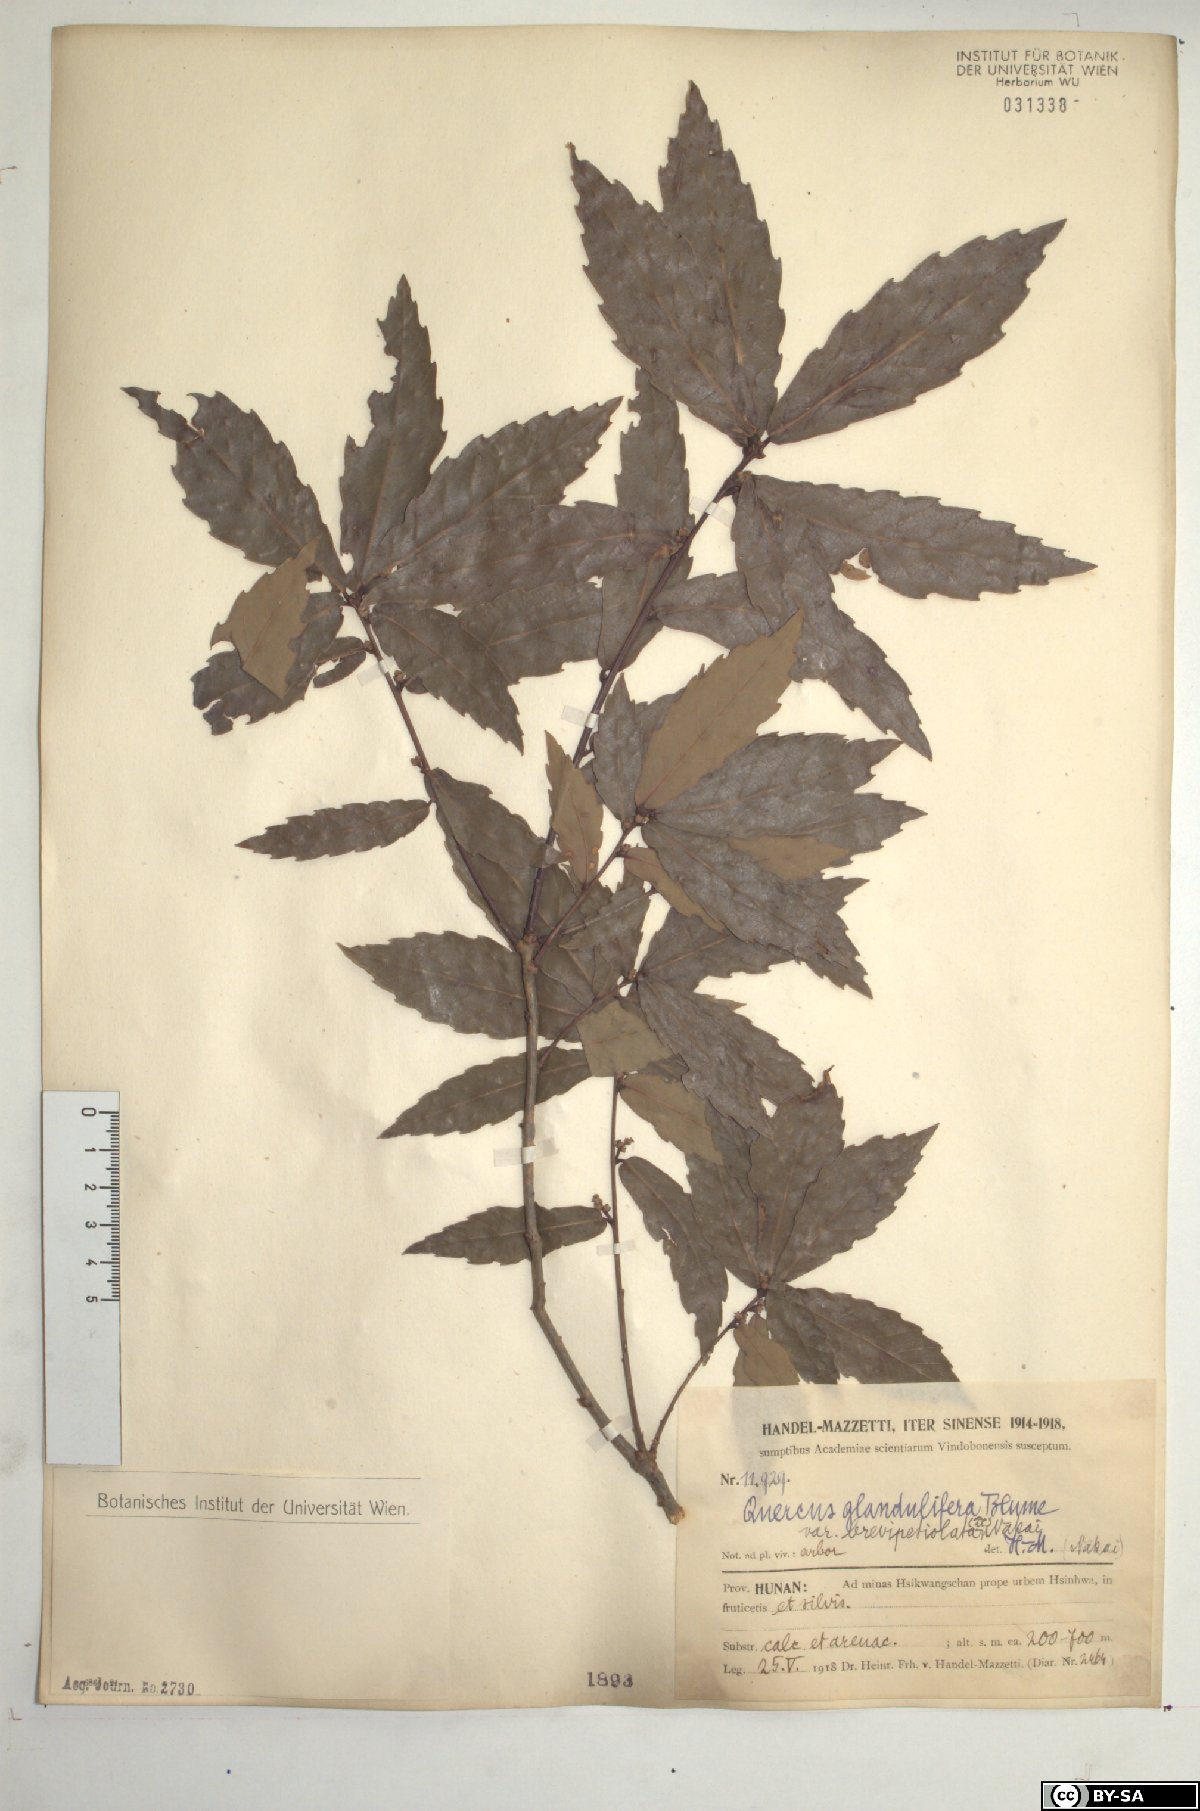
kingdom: Plantae
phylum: Tracheophyta
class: Magnoliopsida
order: Fagales
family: Fagaceae
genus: Quercus
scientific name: Quercus serrata
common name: Bao li
